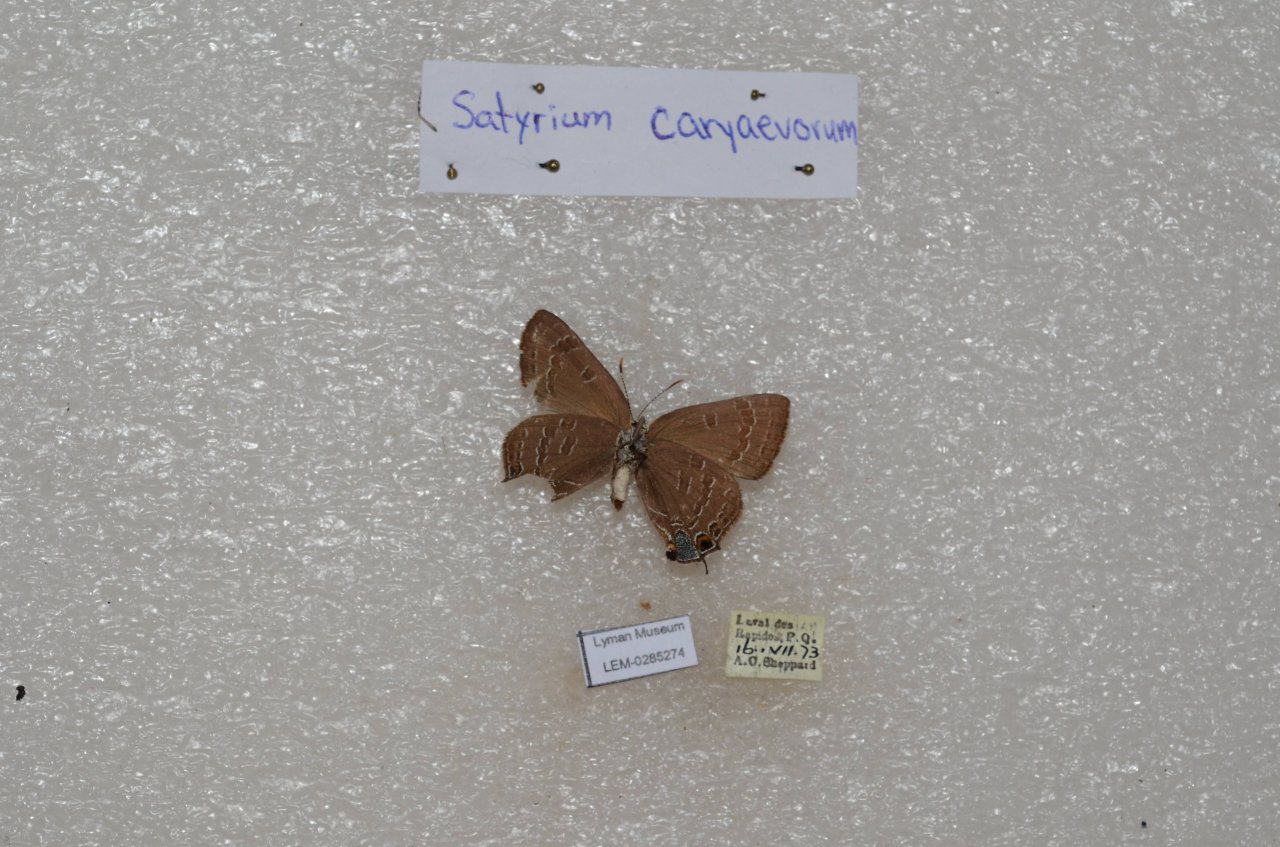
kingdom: Animalia
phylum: Arthropoda
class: Insecta
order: Lepidoptera
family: Lycaenidae
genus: Strymon
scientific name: Strymon caryaevorus
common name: Hickory Hairstreak
